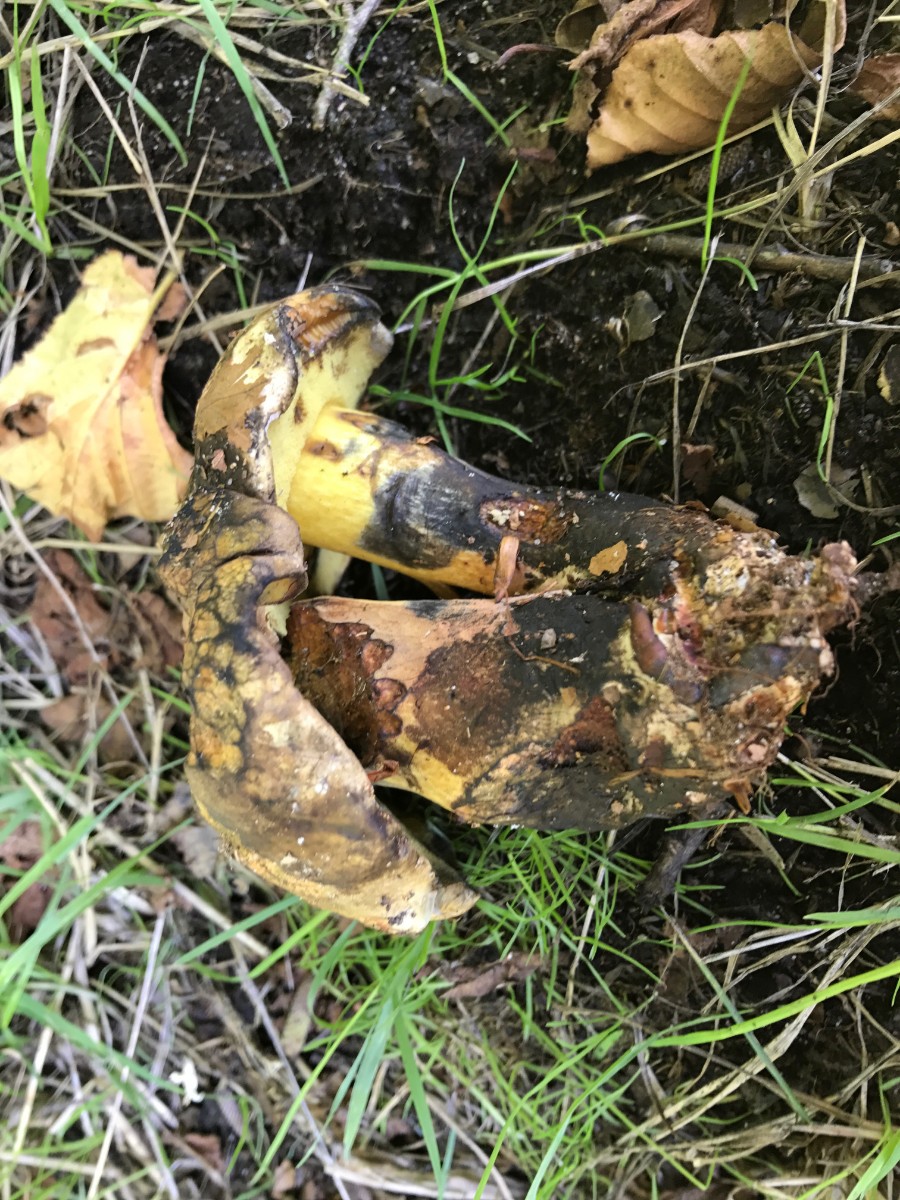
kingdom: Fungi
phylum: Basidiomycota
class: Agaricomycetes
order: Boletales
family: Boletaceae
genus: Cyanoboletus
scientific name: Cyanoboletus pulverulentus
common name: sortblånende rørhat
